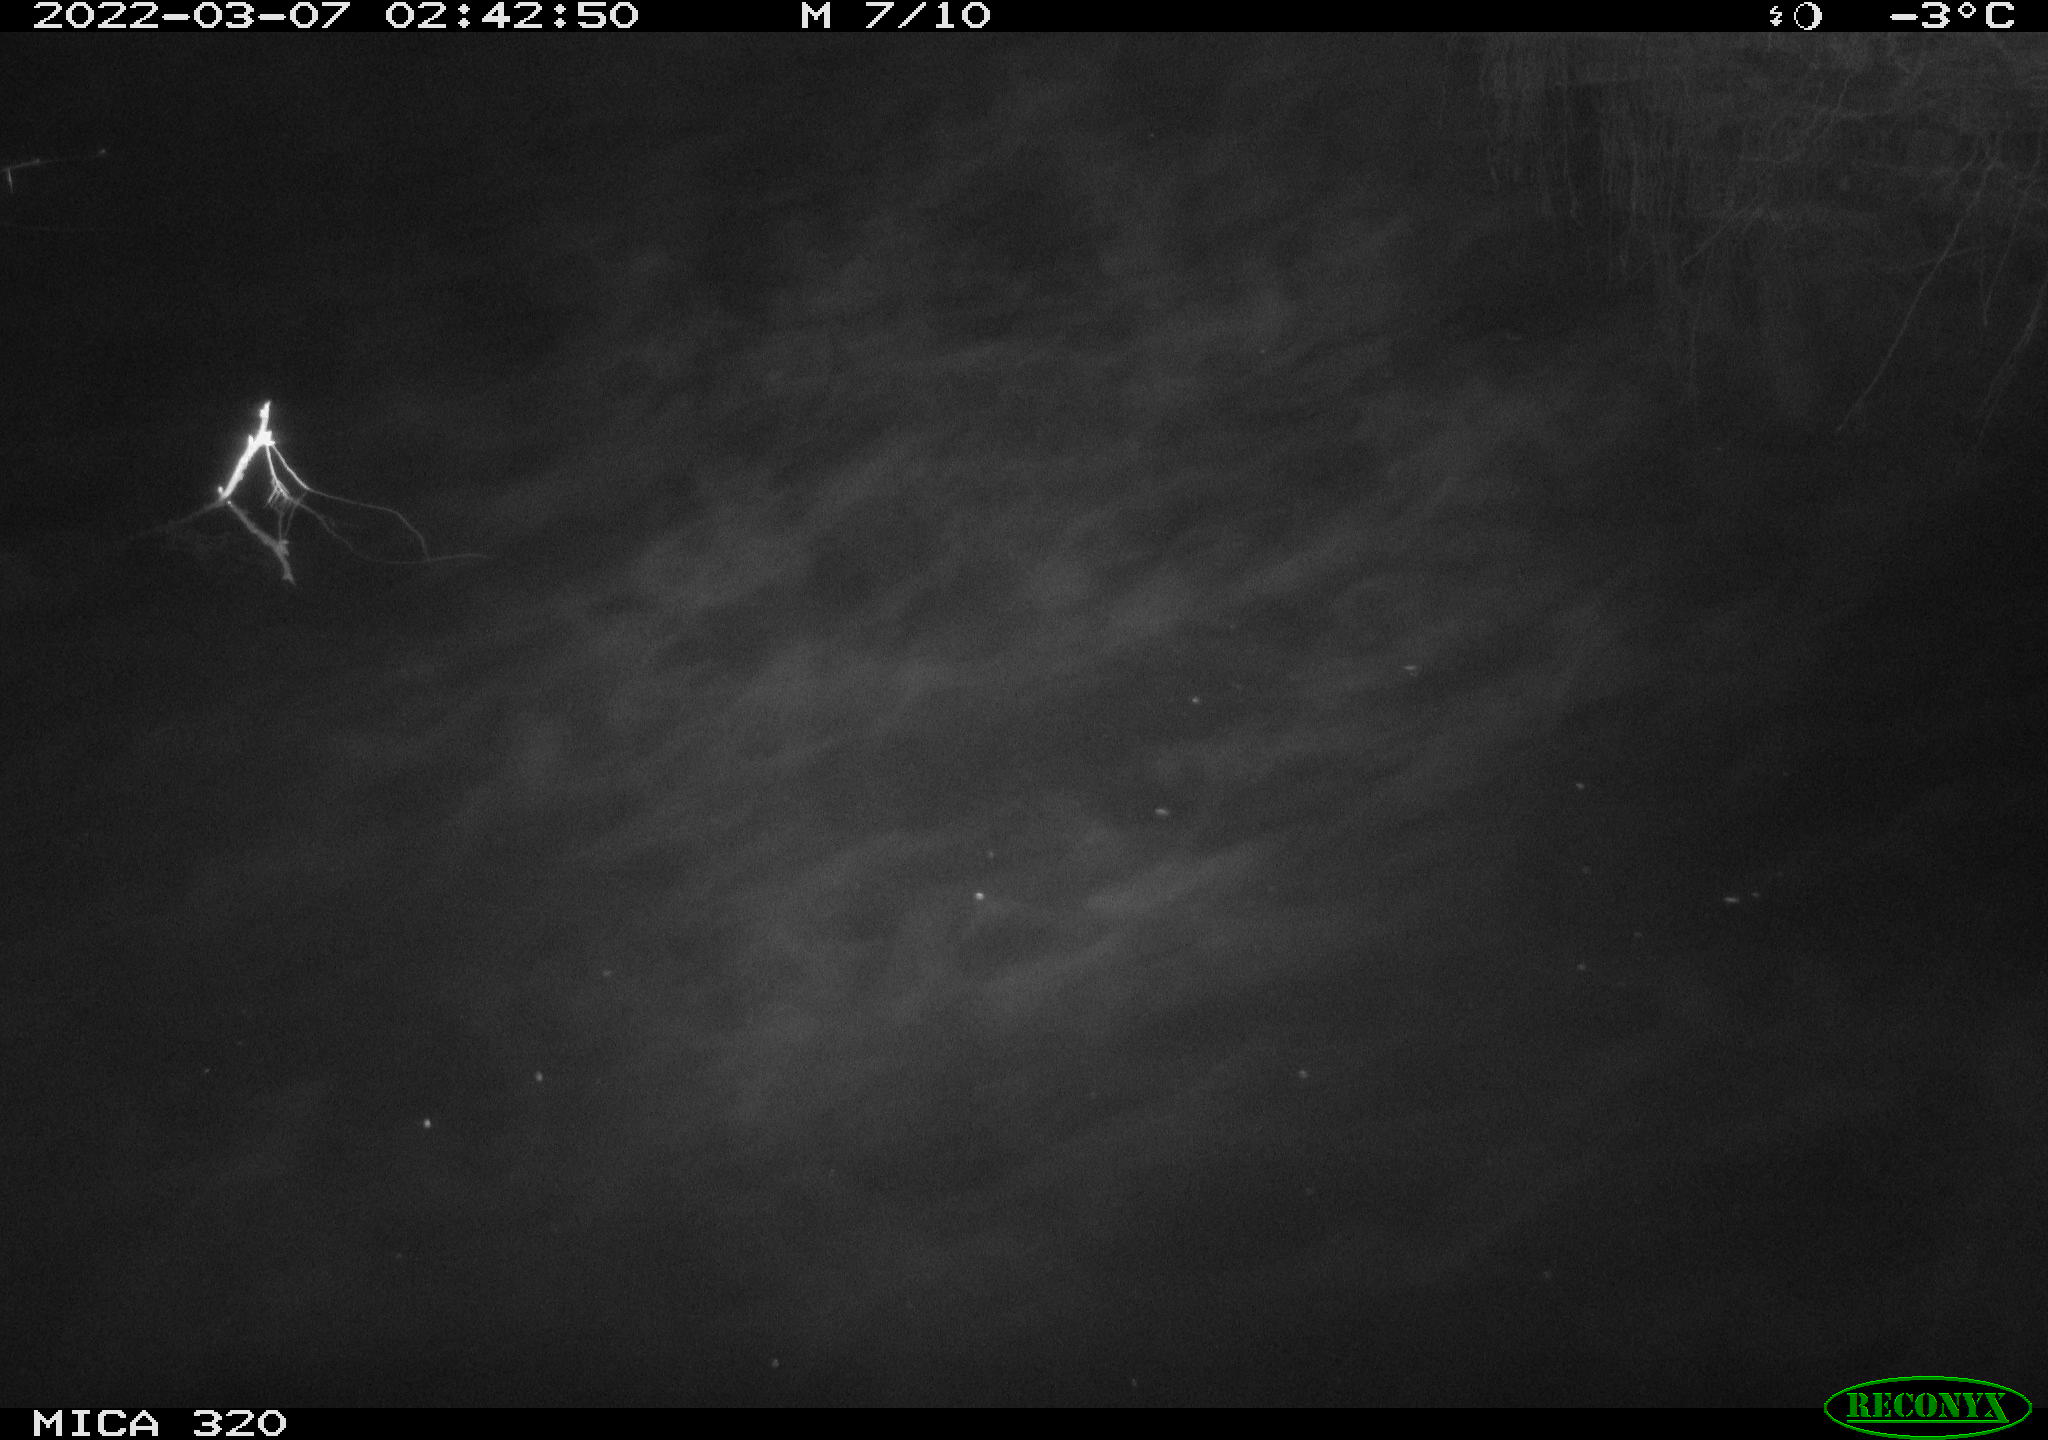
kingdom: Animalia
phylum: Chordata
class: Aves
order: Anseriformes
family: Anatidae
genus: Anas
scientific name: Anas platyrhynchos
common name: Mallard
